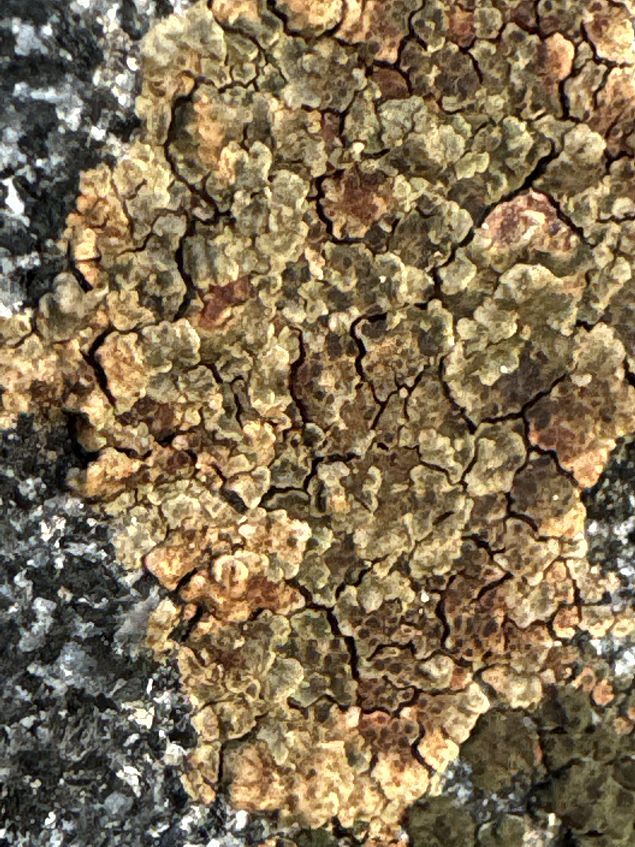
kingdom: Fungi
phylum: Ascomycota
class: Lecanoromycetes
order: Acarosporales
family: Acarosporaceae
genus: Acarospora
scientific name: Acarospora fuscata
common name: brun småsporelav
